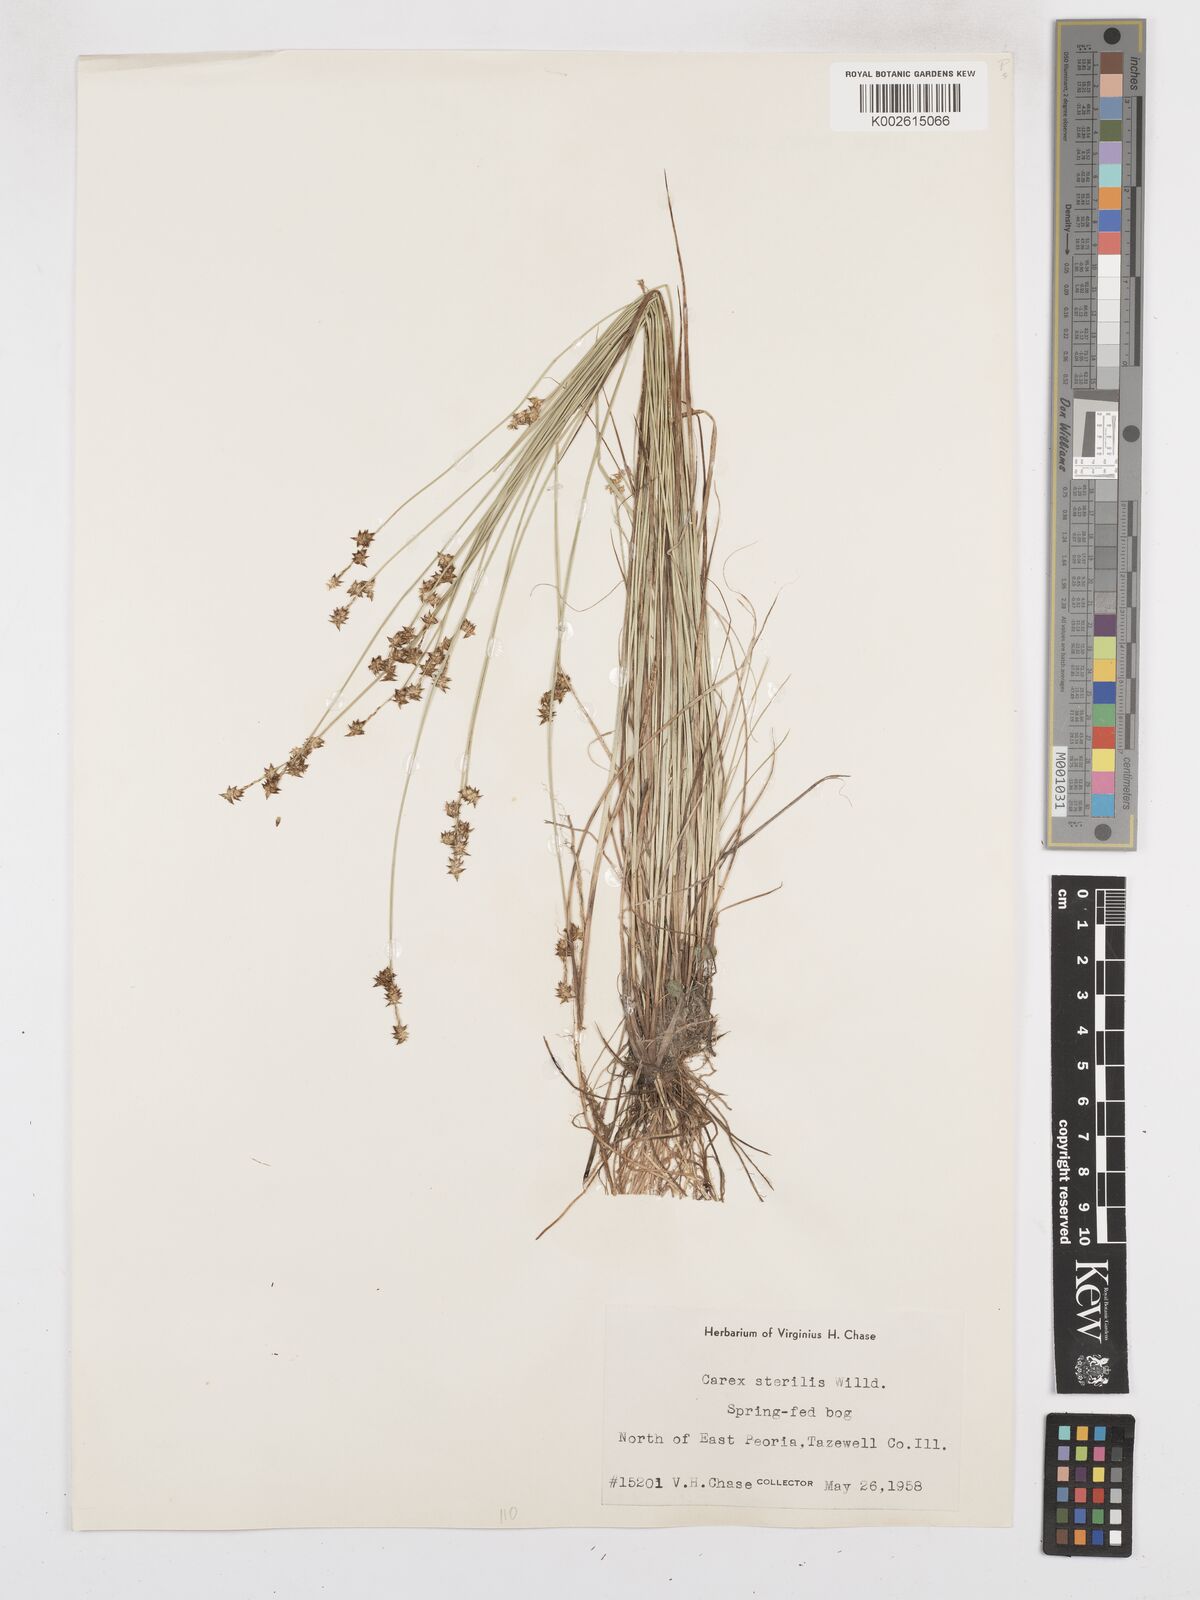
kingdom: Plantae
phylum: Tracheophyta
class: Liliopsida
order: Poales
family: Cyperaceae
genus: Carex
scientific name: Carex sterilis
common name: Dioecious sedge
